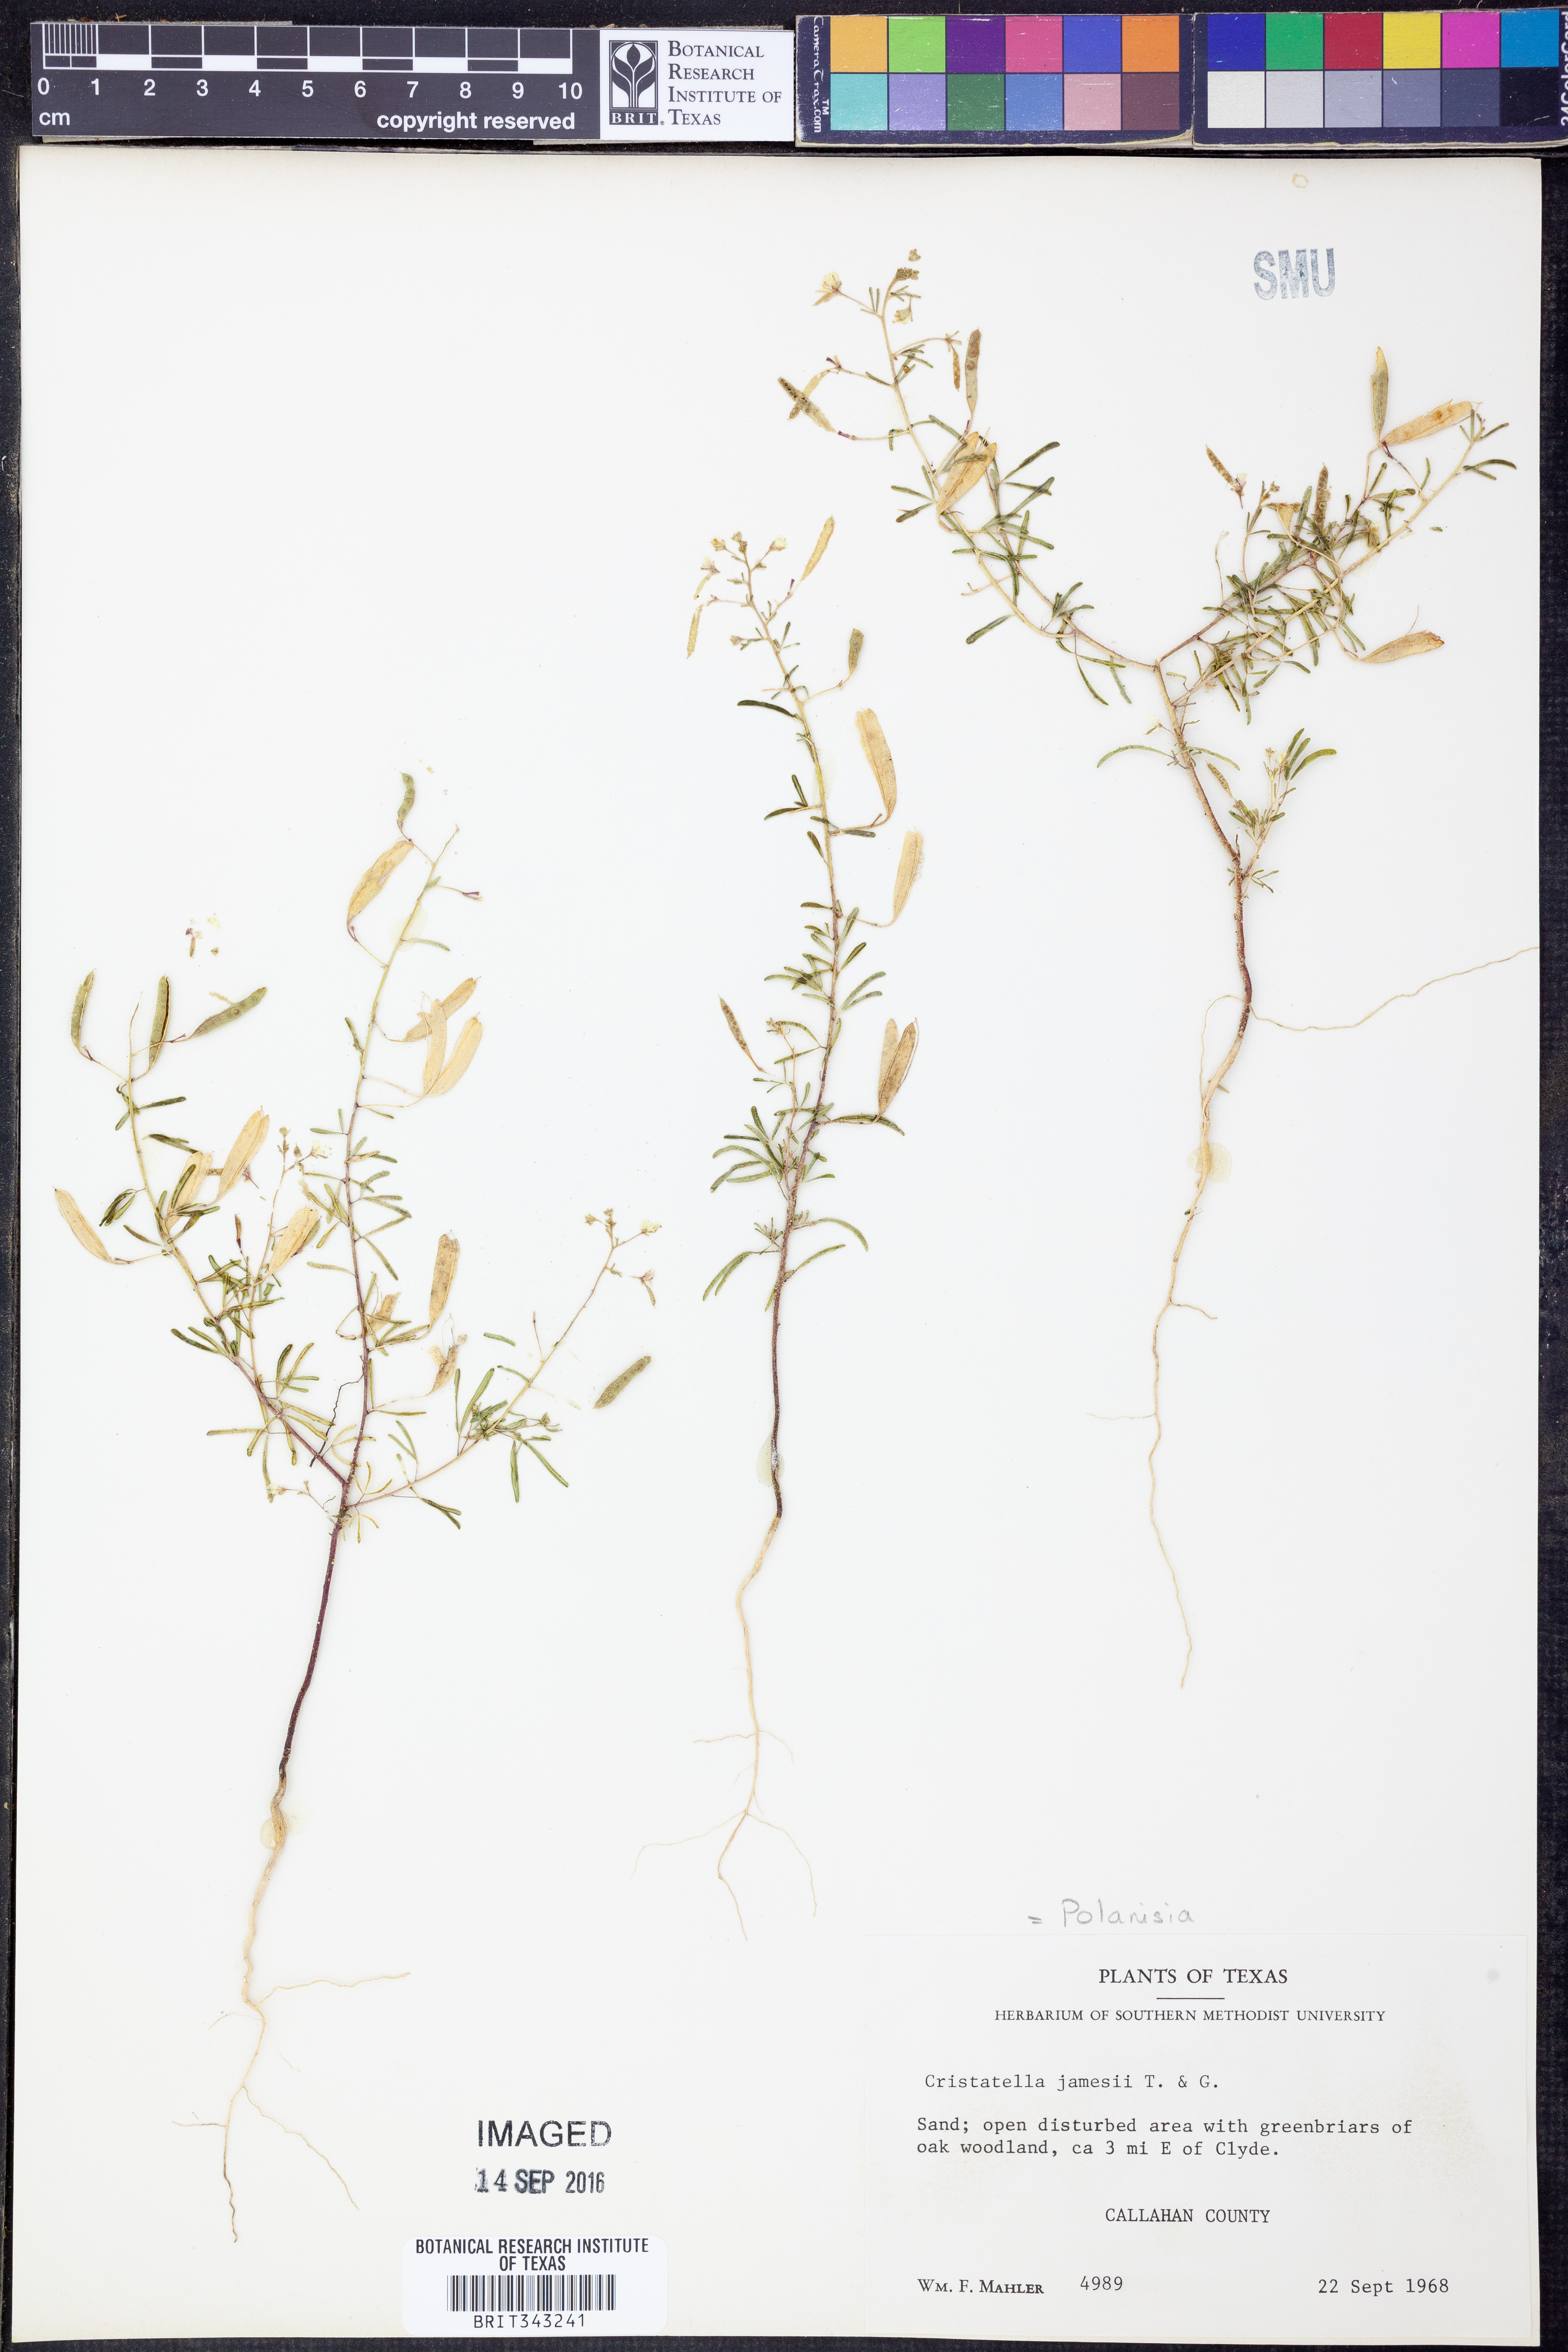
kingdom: Plantae
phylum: Tracheophyta
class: Magnoliopsida
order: Brassicales
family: Cleomaceae
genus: Polanisia
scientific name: Polanisia jamesii
